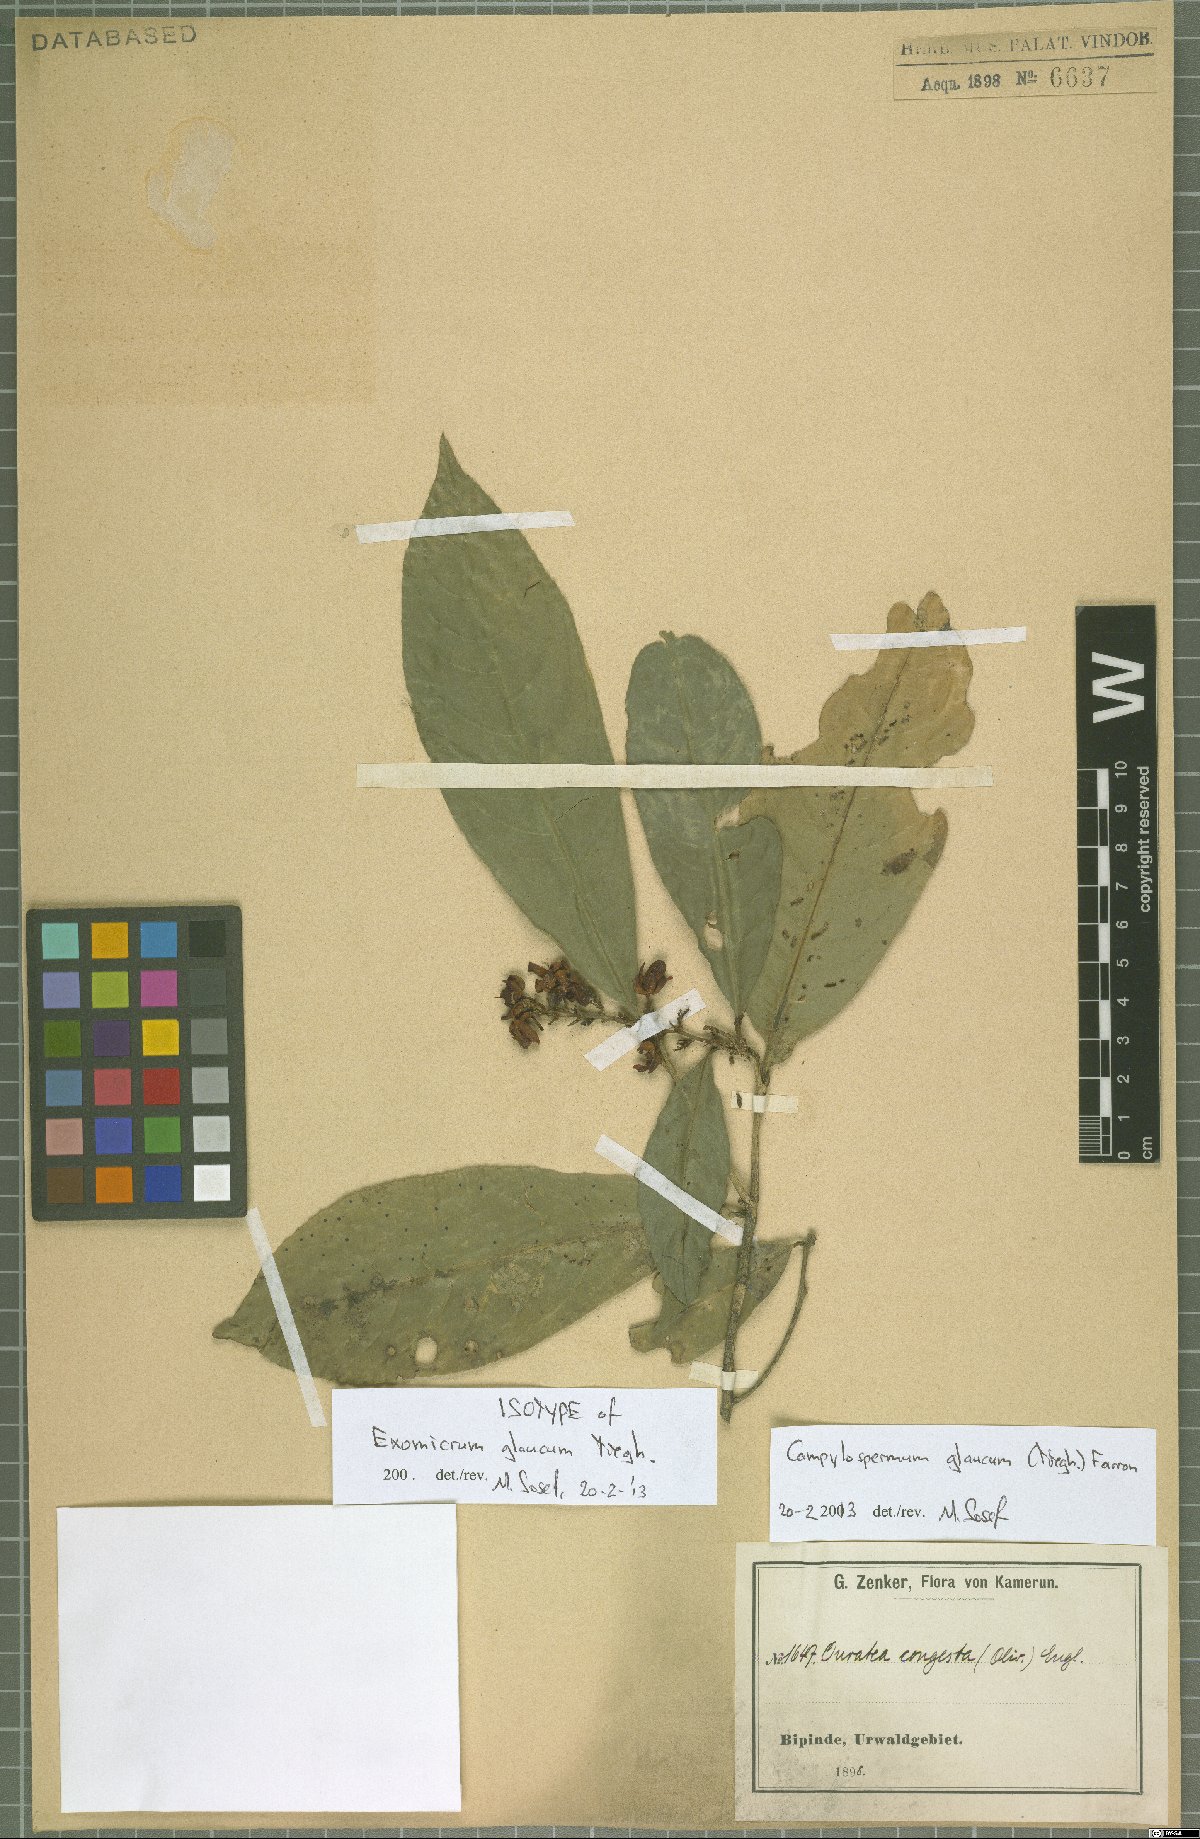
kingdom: Plantae
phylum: Tracheophyta
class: Magnoliopsida
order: Malpighiales
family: Ochnaceae
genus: Campylospermum
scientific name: Campylospermum glaucum
